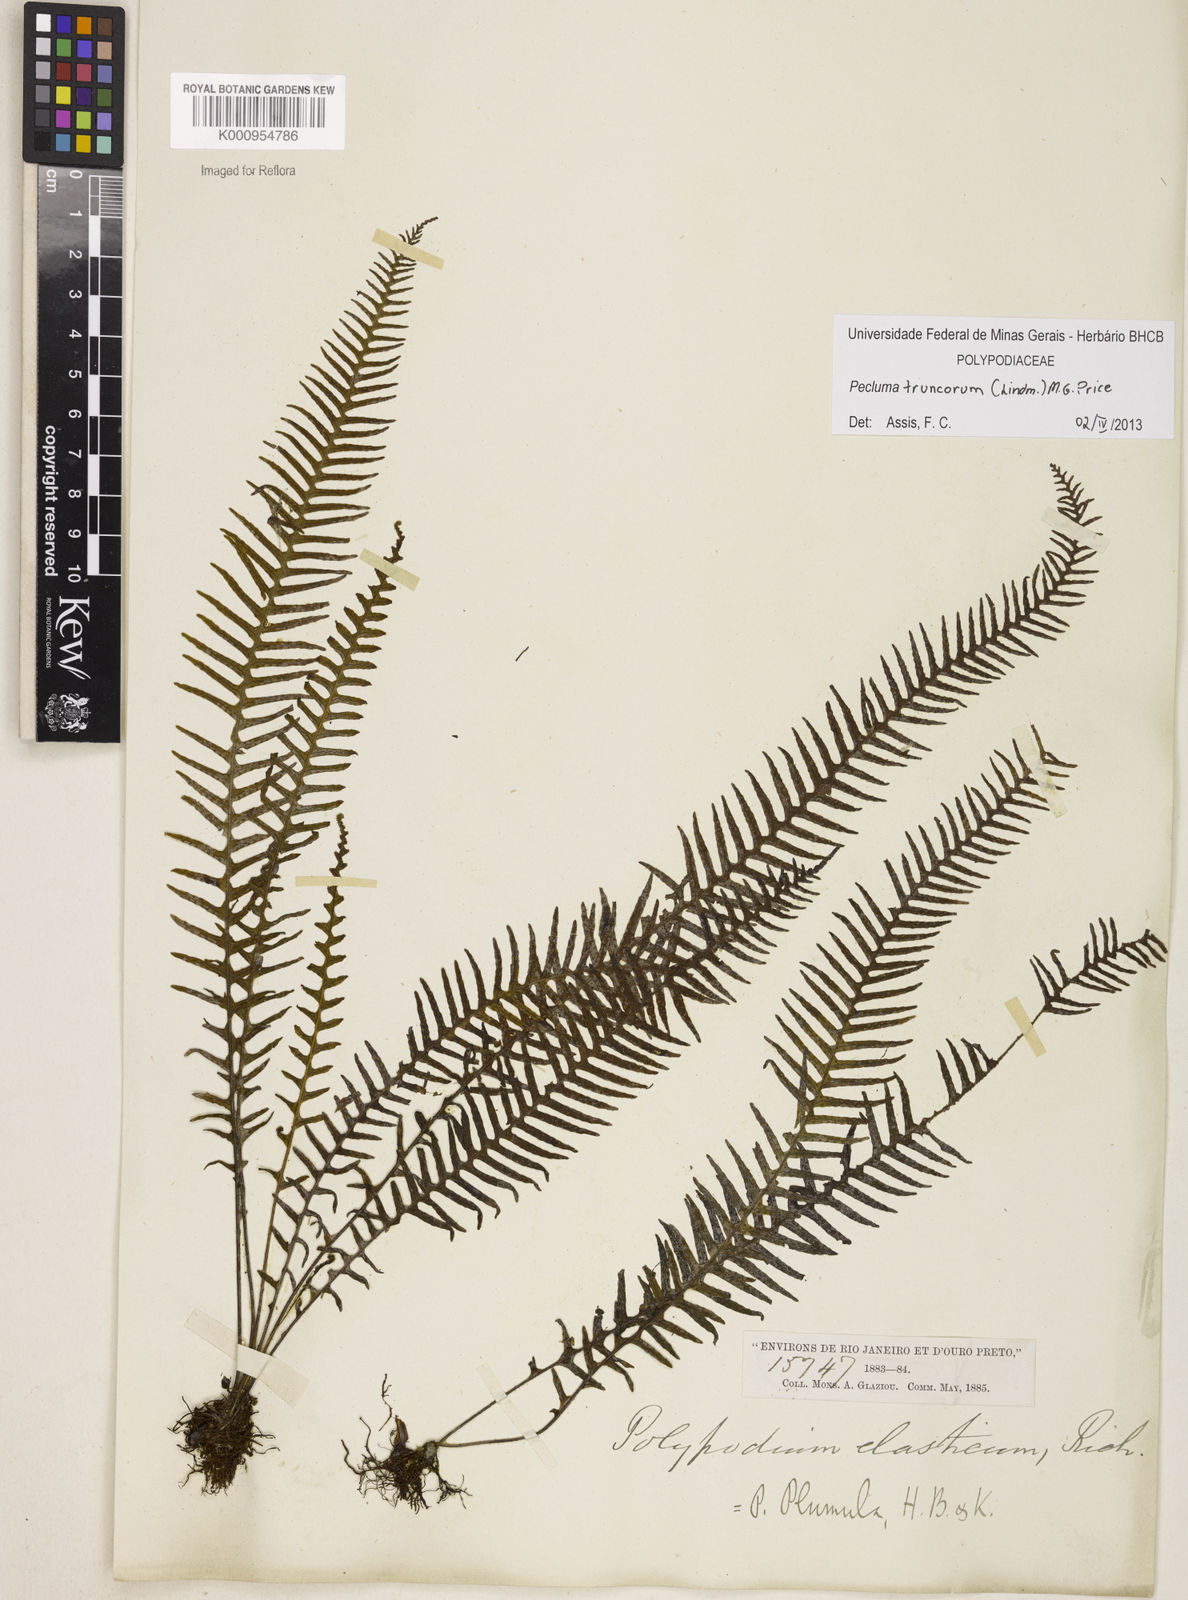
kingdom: Plantae
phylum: Tracheophyta
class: Polypodiopsida
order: Polypodiales
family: Polypodiaceae
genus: Pecluma
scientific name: Pecluma truncorum
